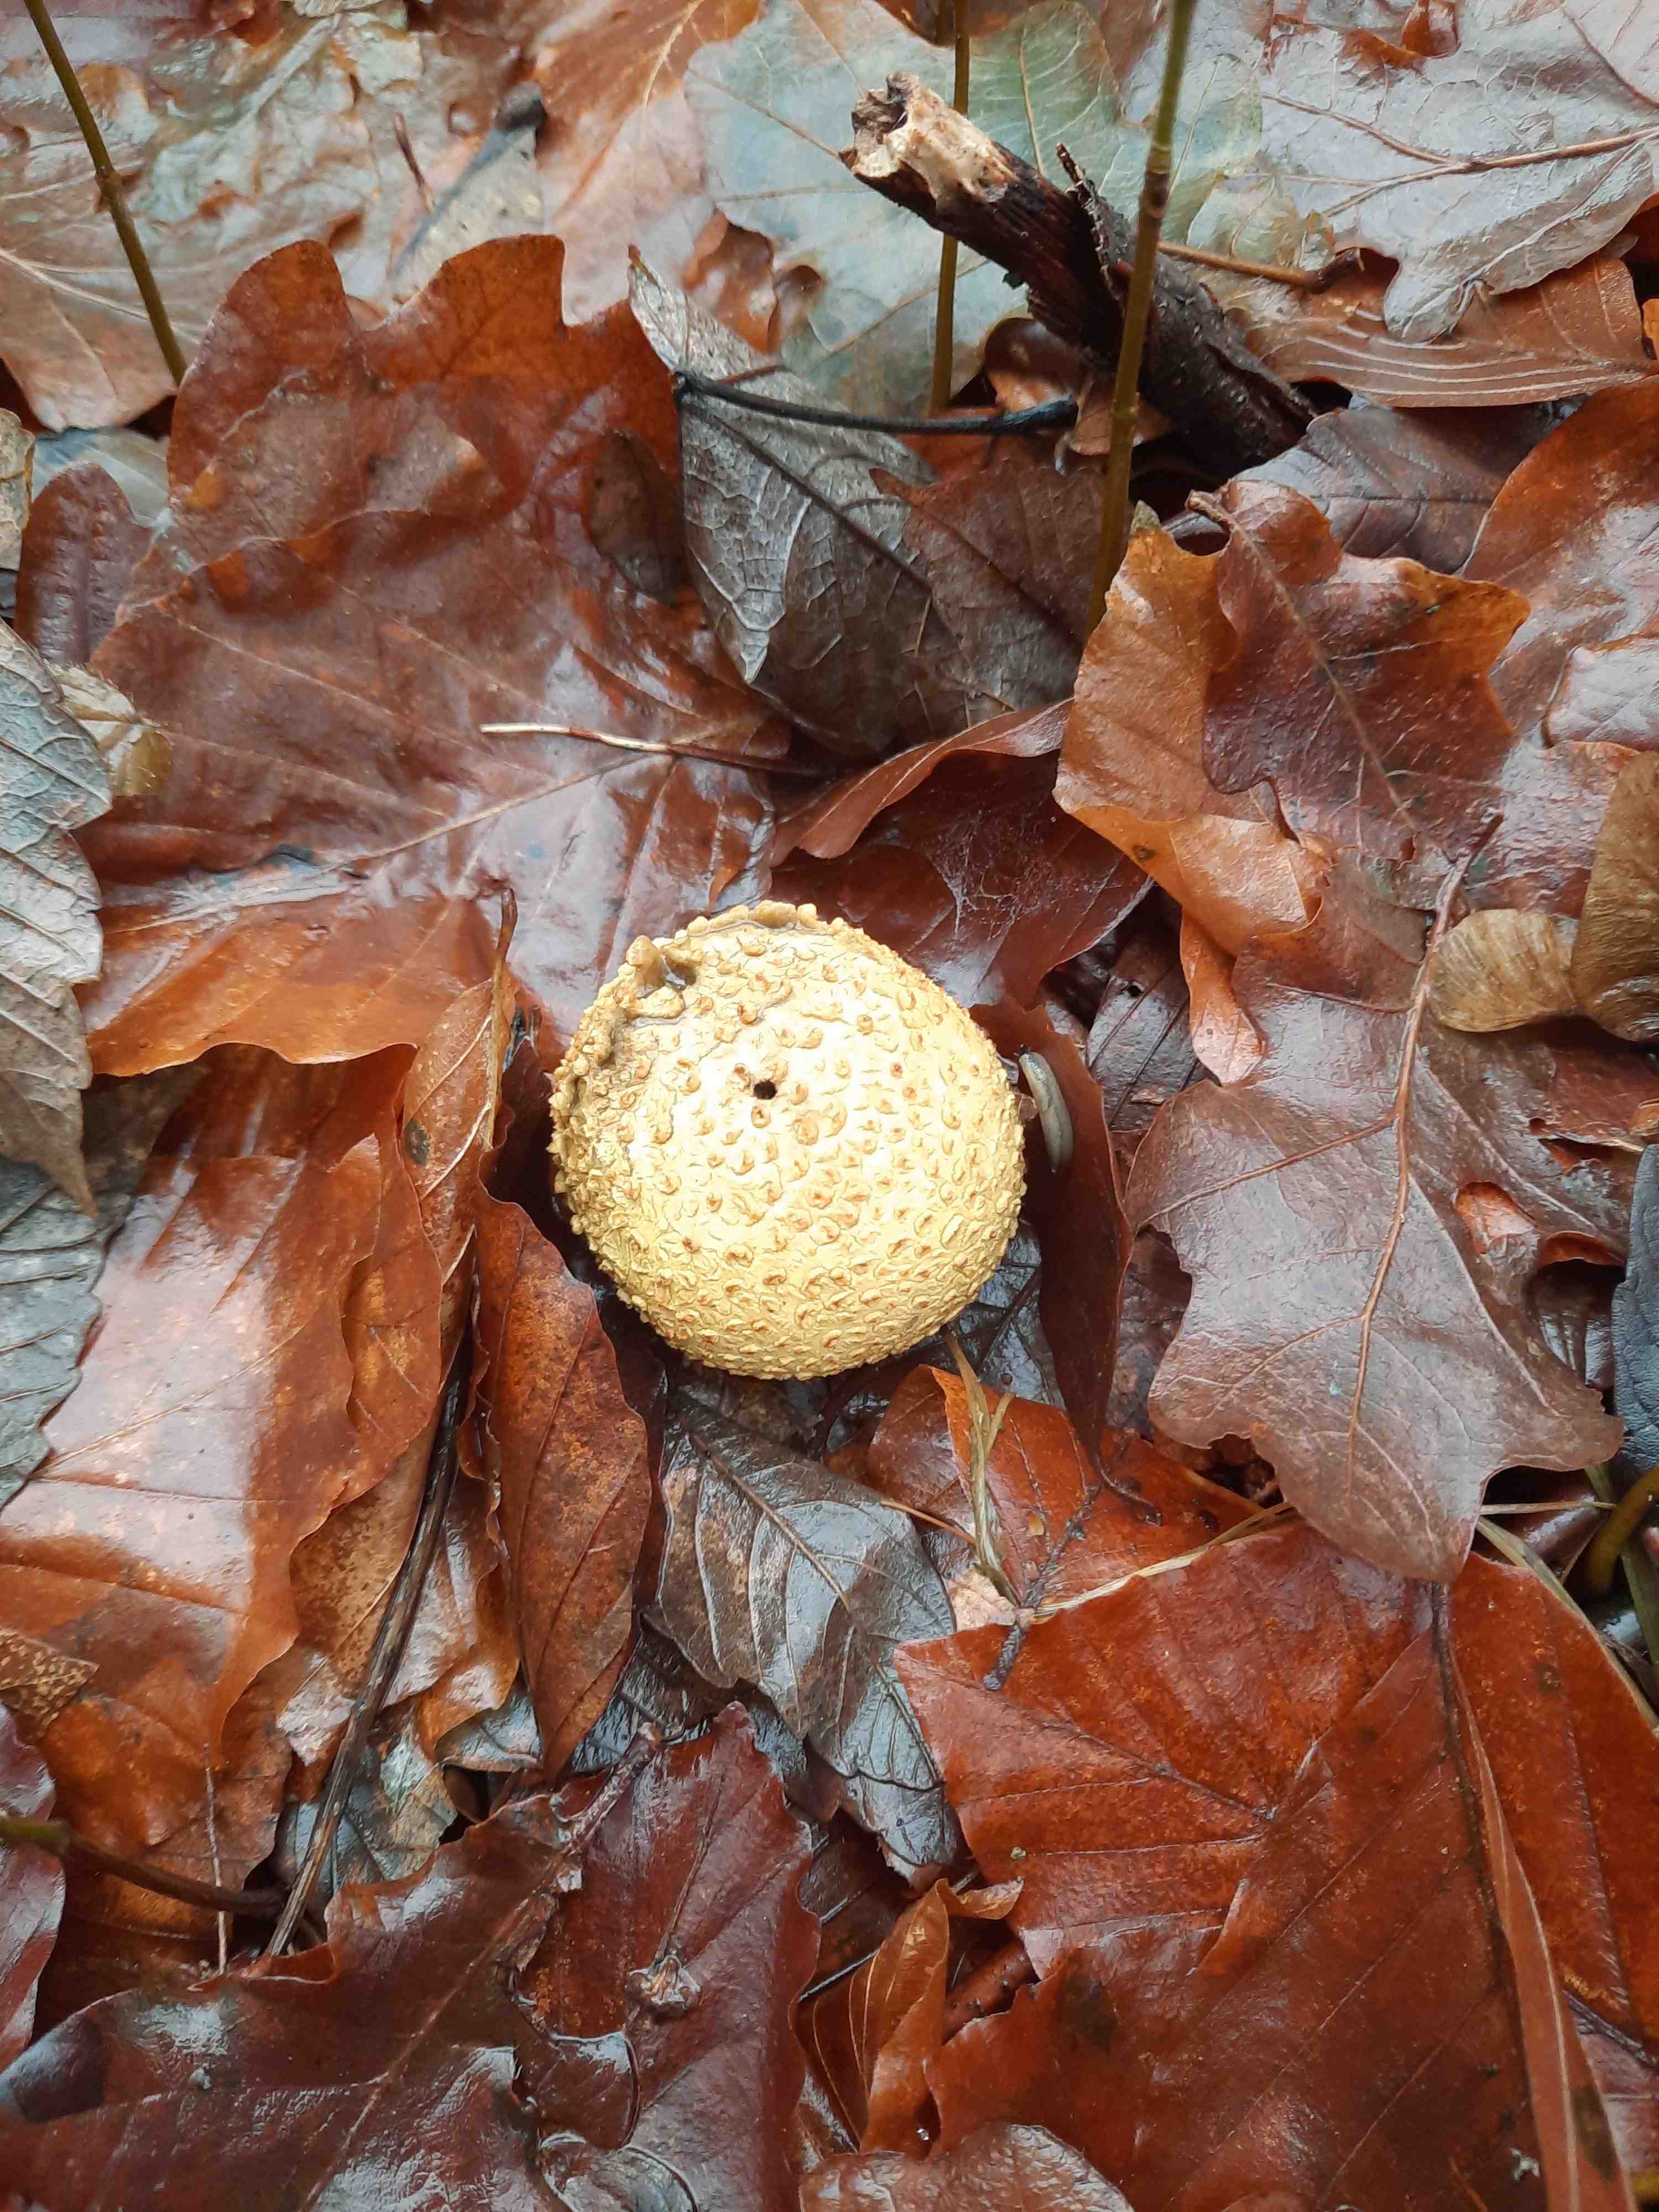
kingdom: Fungi
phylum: Basidiomycota
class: Agaricomycetes
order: Boletales
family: Sclerodermataceae
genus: Scleroderma
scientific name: Scleroderma citrinum
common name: almindelig bruskbold
